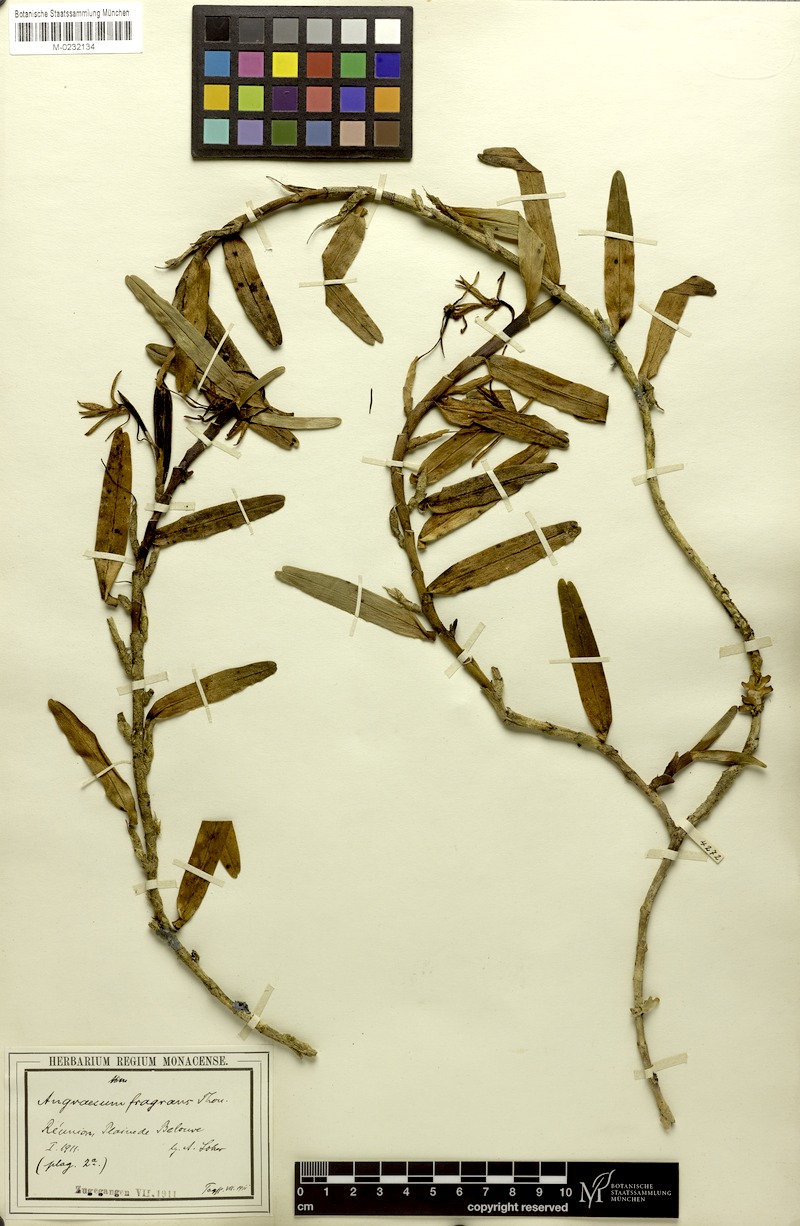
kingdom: Plantae
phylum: Tracheophyta
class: Liliopsida
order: Asparagales
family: Orchidaceae
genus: Jumellea
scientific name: Jumellea fragrans
